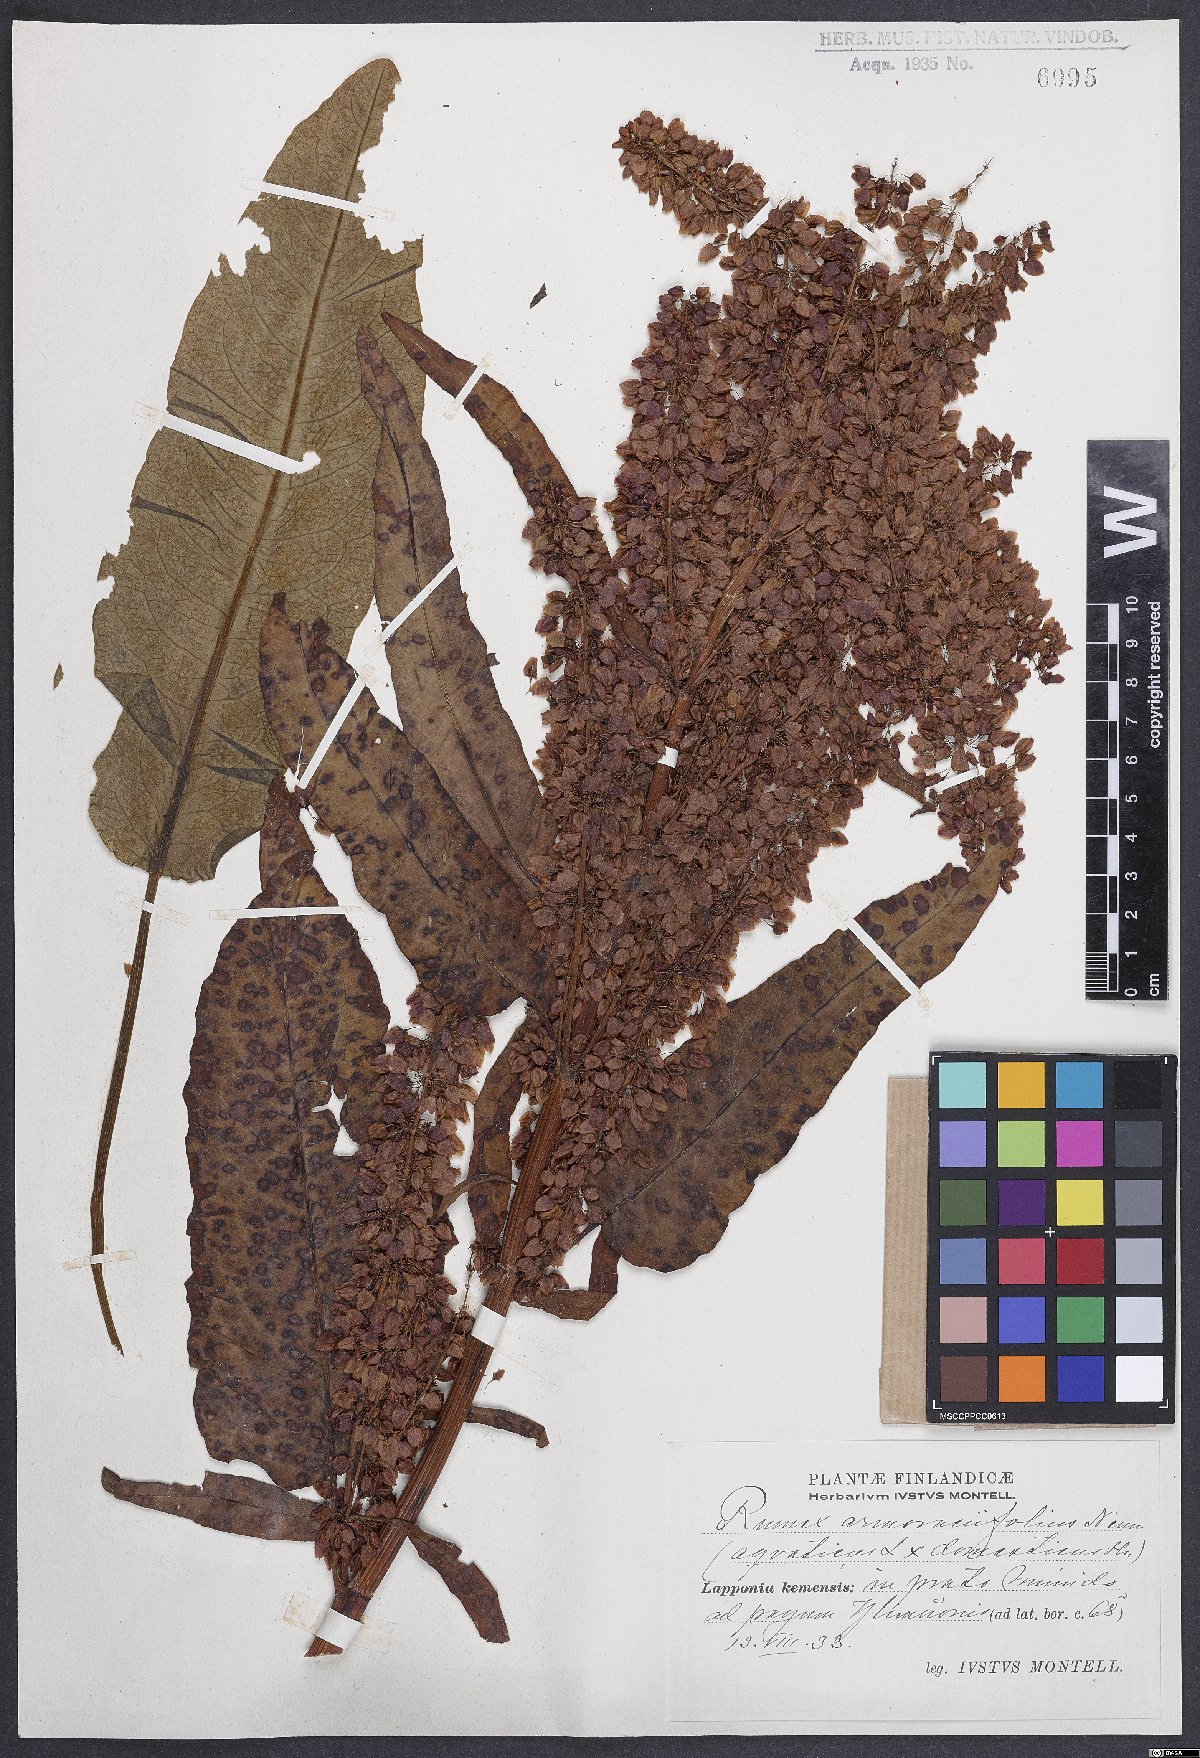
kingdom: Plantae
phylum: Tracheophyta
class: Magnoliopsida
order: Caryophyllales
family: Polygonaceae
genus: Rumex
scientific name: Rumex
